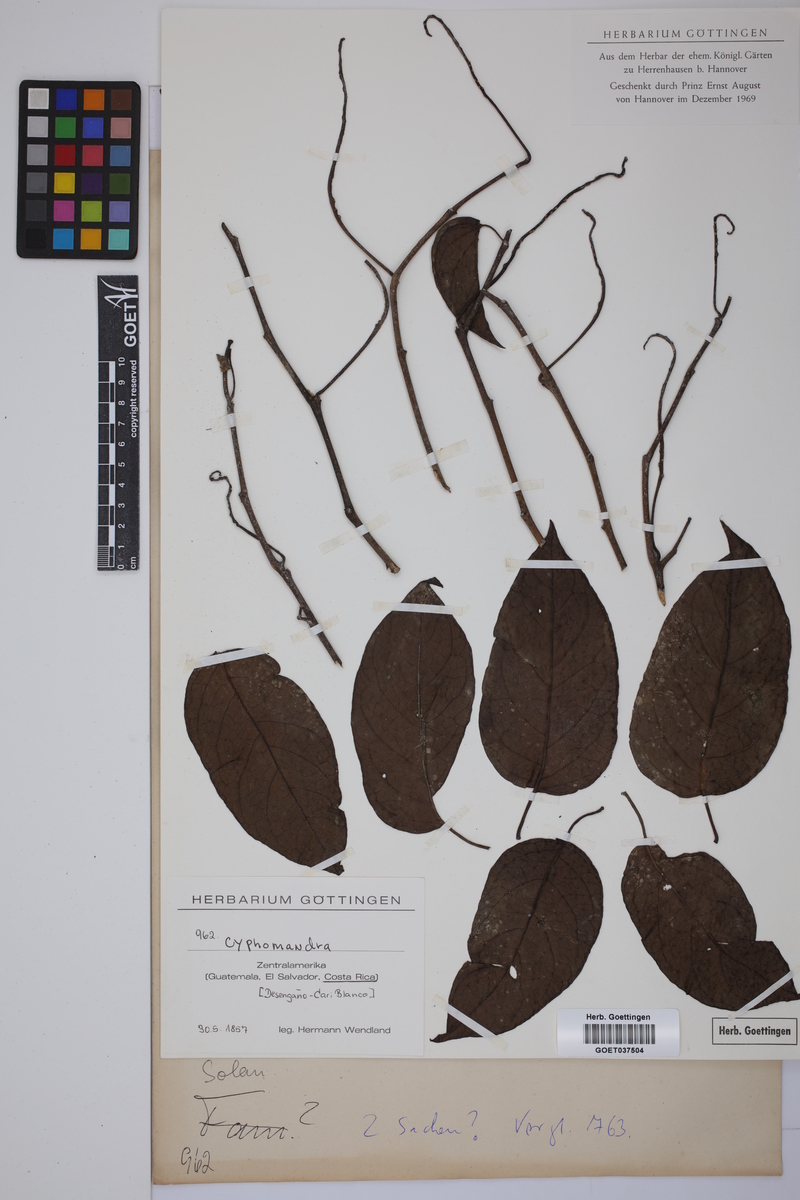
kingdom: Plantae
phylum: Tracheophyta
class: Magnoliopsida
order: Solanales
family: Solanaceae
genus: Solanum
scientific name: Solanum
